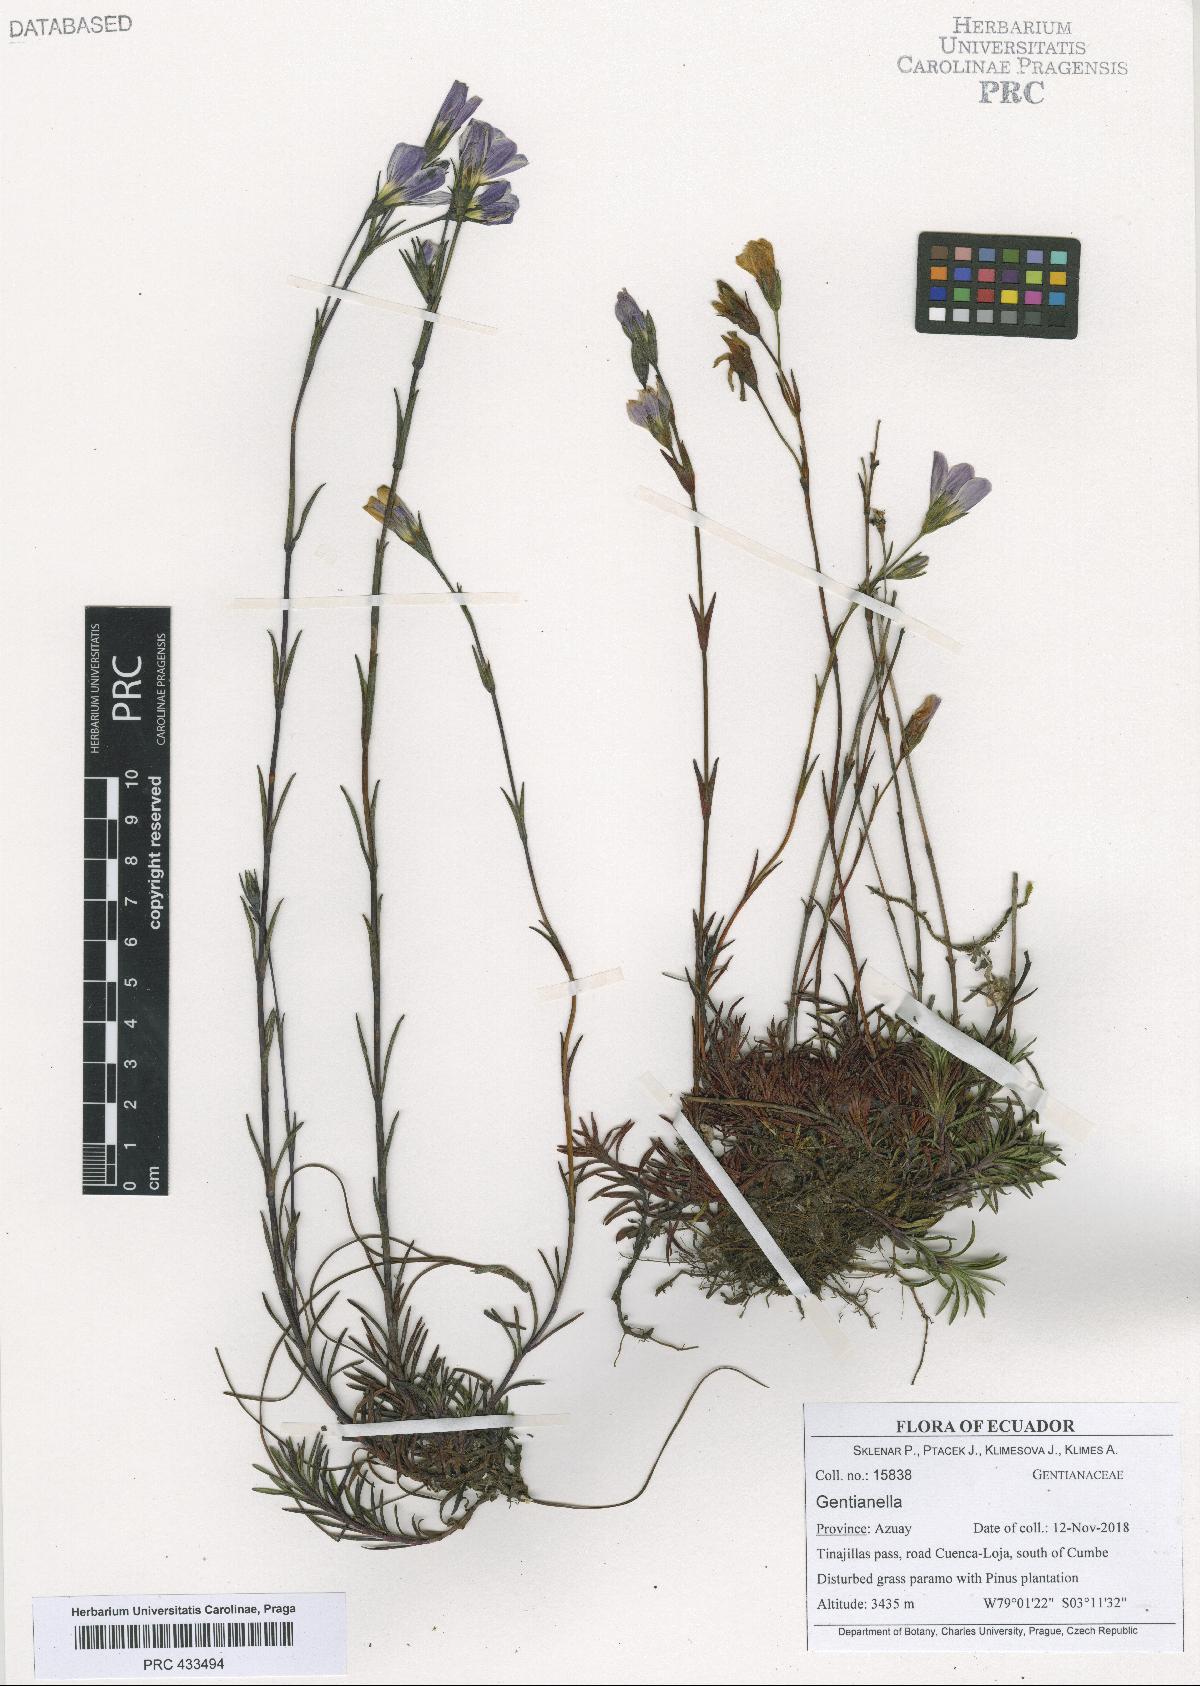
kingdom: Plantae
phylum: Tracheophyta
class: Magnoliopsida
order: Gentianales
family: Gentianaceae
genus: Gentianella
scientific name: Gentianella
